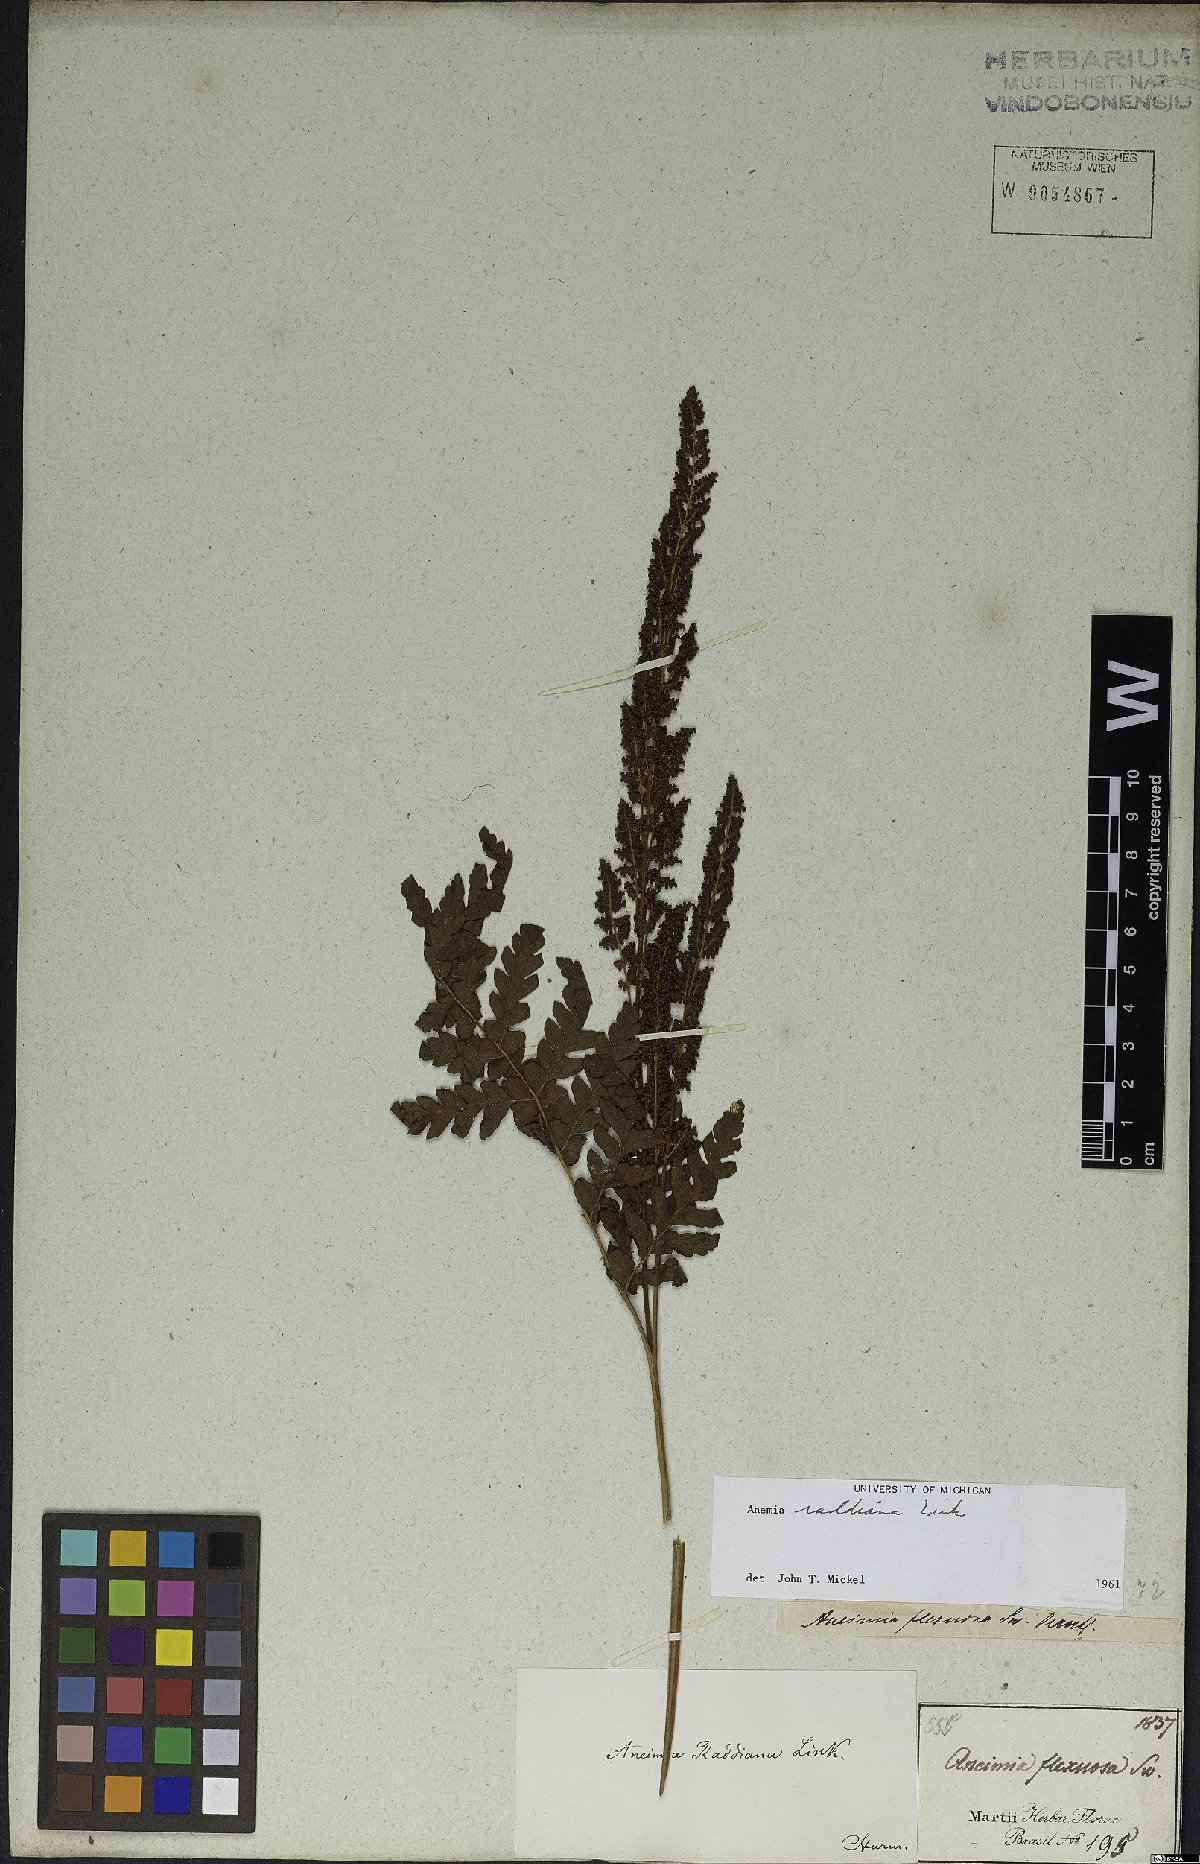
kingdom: Plantae
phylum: Tracheophyta
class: Polypodiopsida
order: Schizaeales
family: Anemiaceae
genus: Anemia
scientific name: Anemia raddiana
